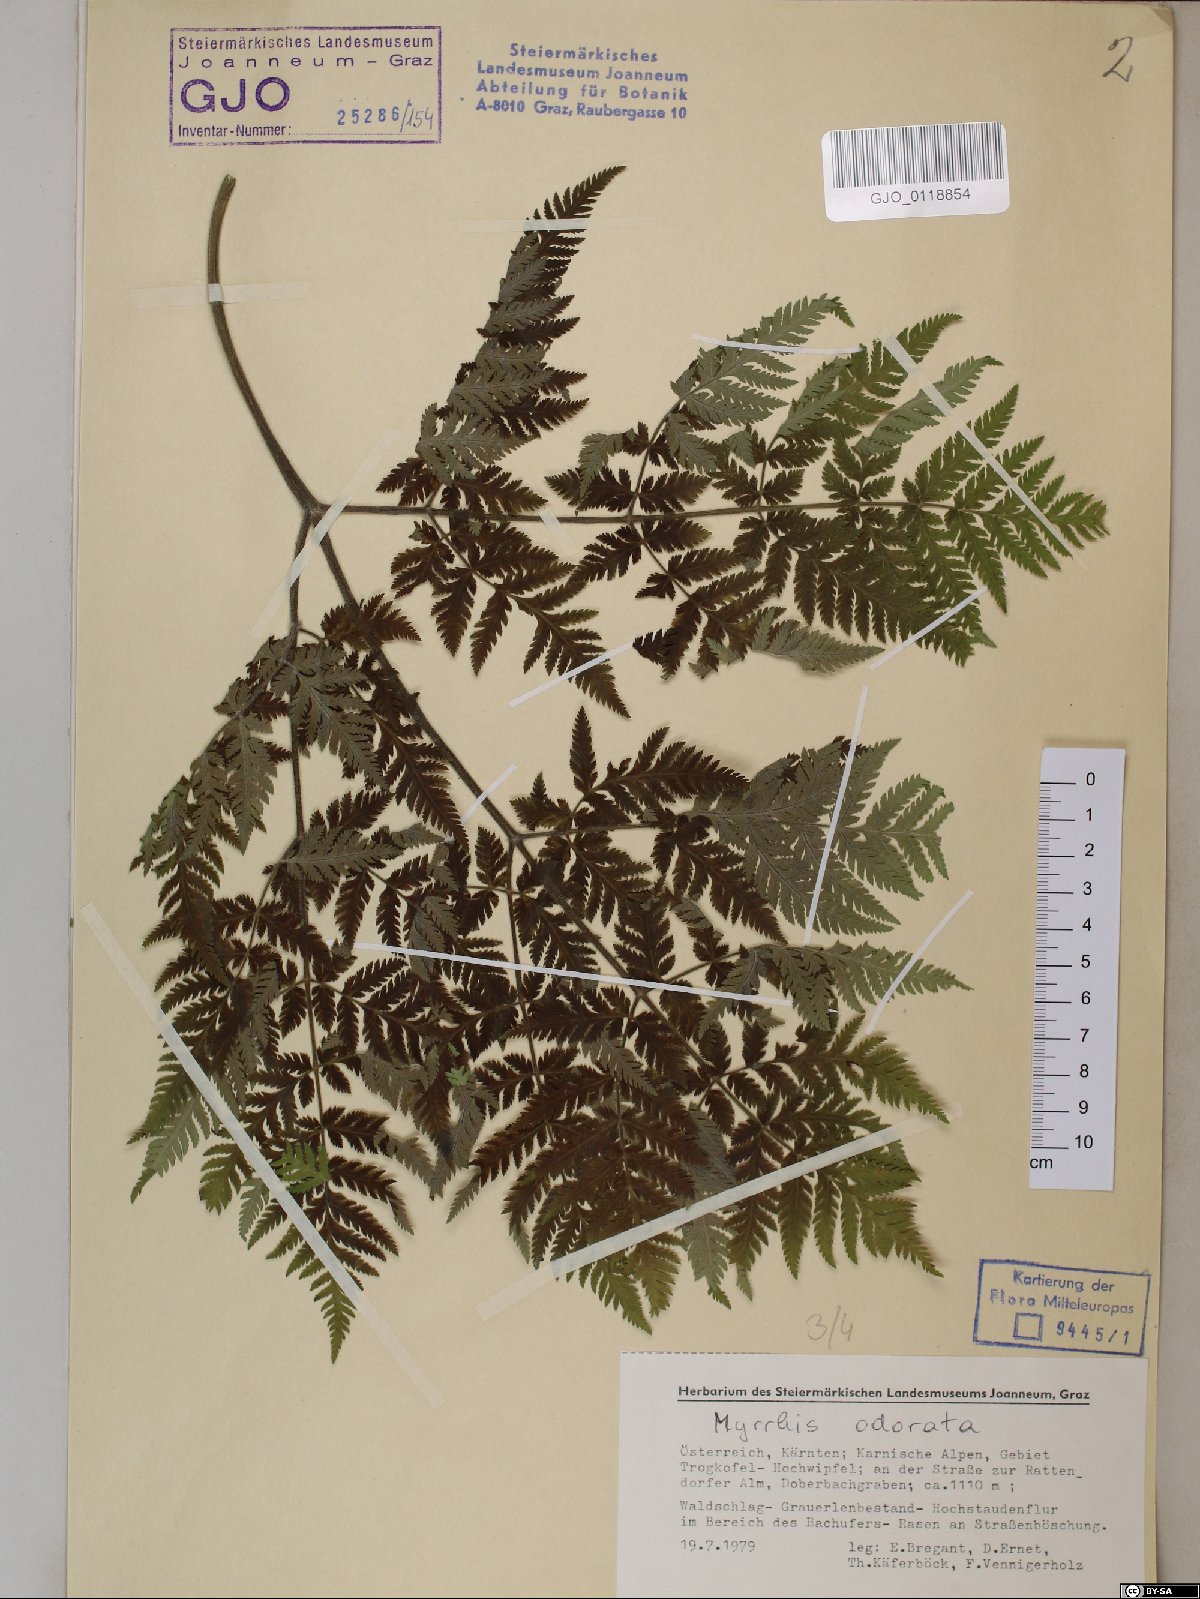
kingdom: Plantae
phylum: Tracheophyta
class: Magnoliopsida
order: Apiales
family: Apiaceae
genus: Myrrhis
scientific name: Myrrhis odorata
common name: Sweet cicely
